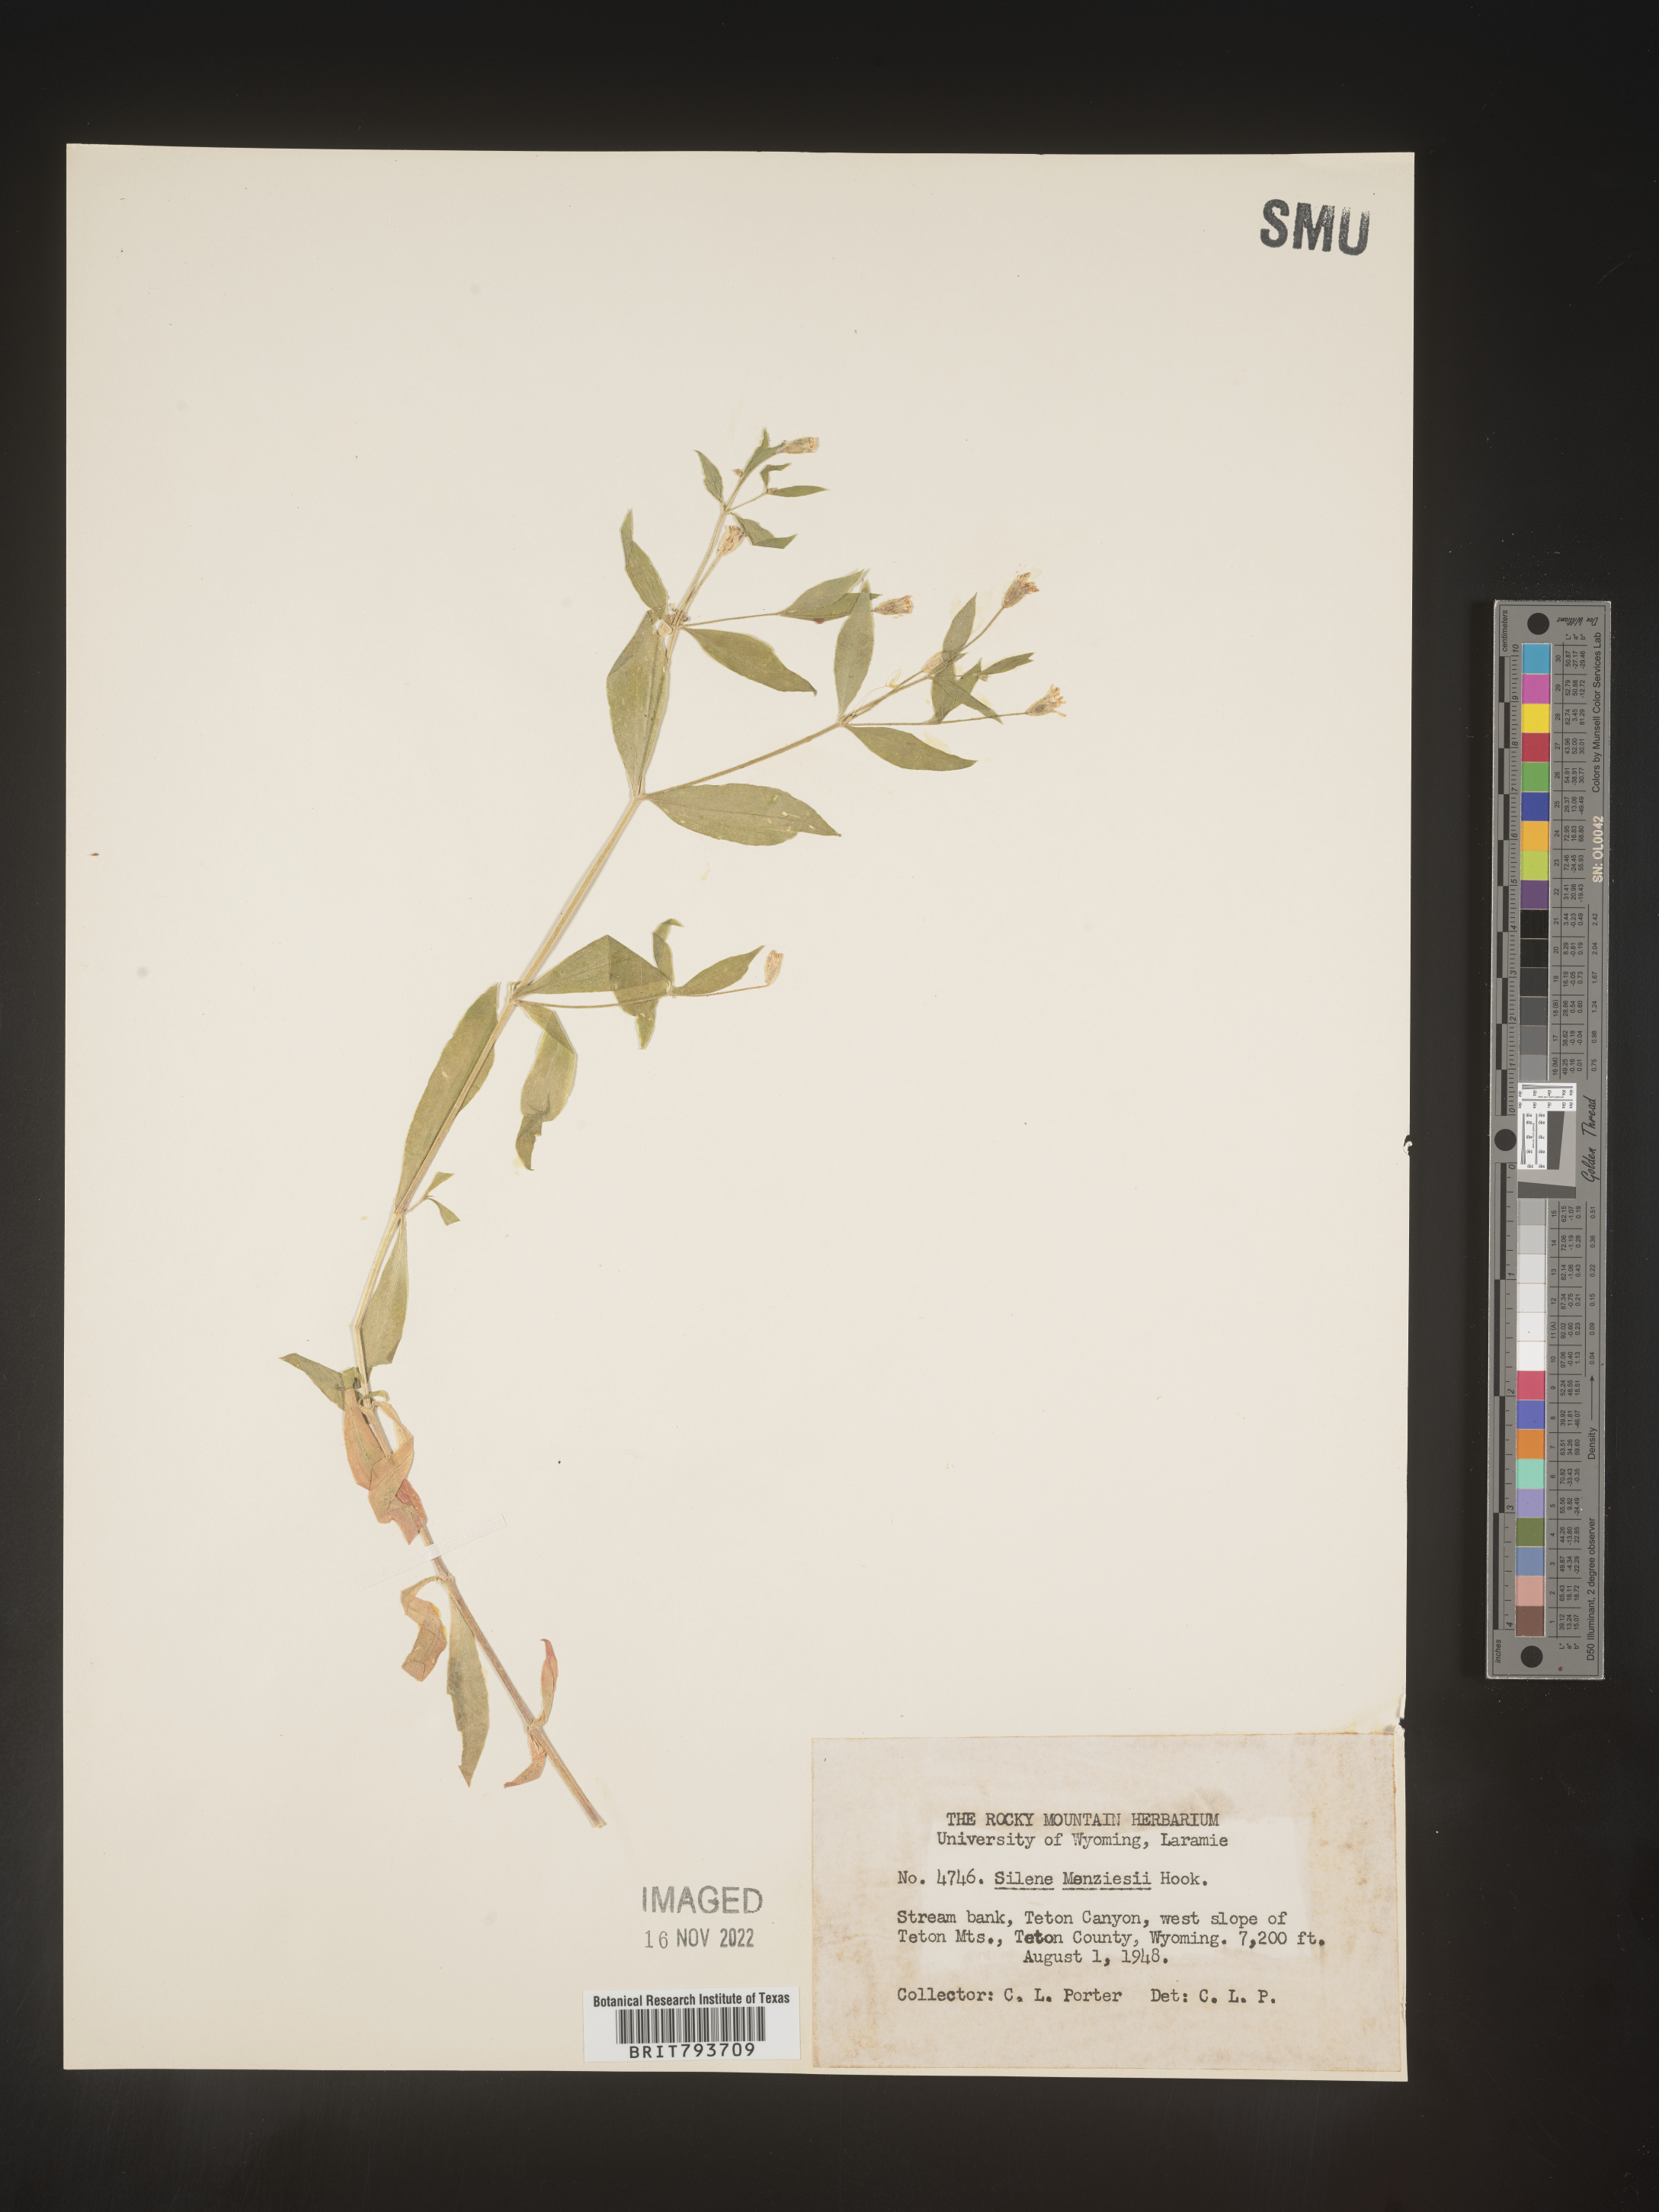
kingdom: Plantae
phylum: Tracheophyta
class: Magnoliopsida
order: Caryophyllales
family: Caryophyllaceae
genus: Silene
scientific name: Silene menziesii
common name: Menzies's catchfly
